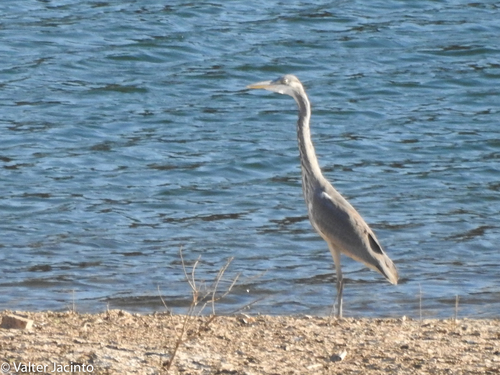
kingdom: Animalia
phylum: Chordata
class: Aves
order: Pelecaniformes
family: Ardeidae
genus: Ardea
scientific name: Ardea cinerea
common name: Grey heron
